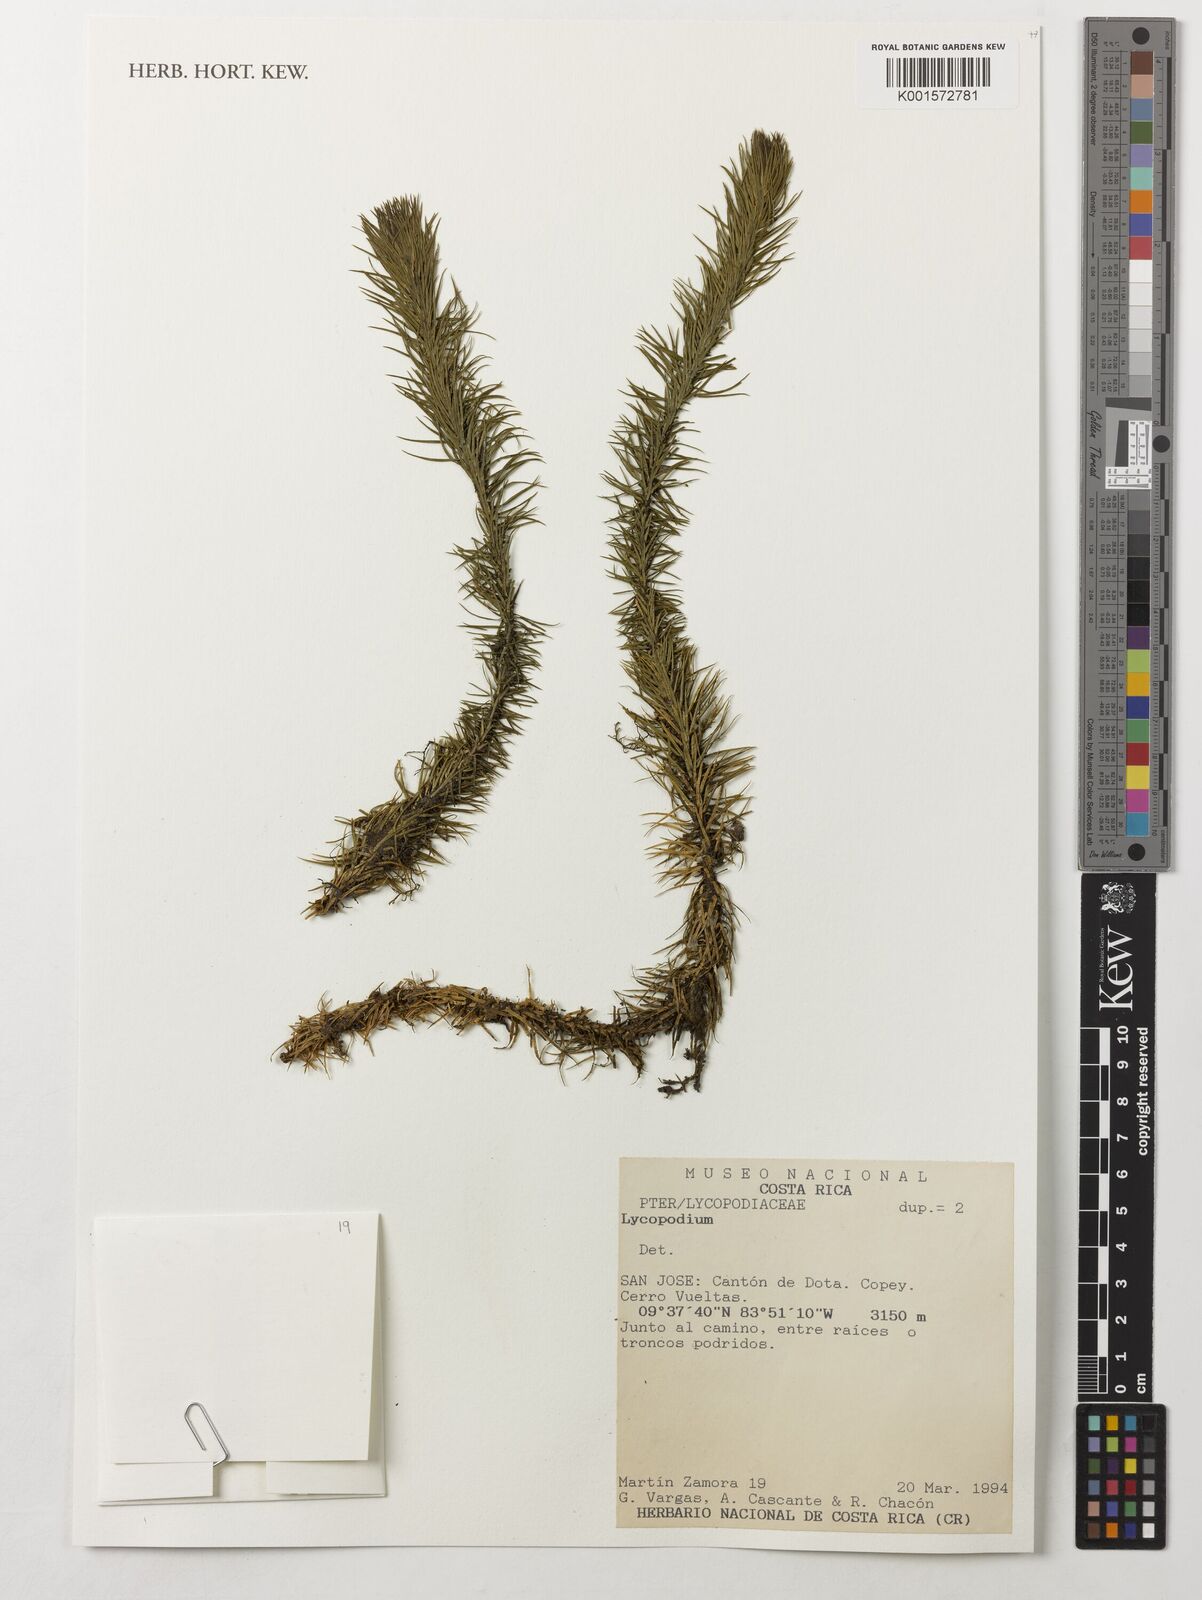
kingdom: Plantae
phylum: Tracheophyta
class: Lycopodiopsida
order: Lycopodiales
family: Lycopodiaceae
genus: Lycopodium
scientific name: Lycopodium
